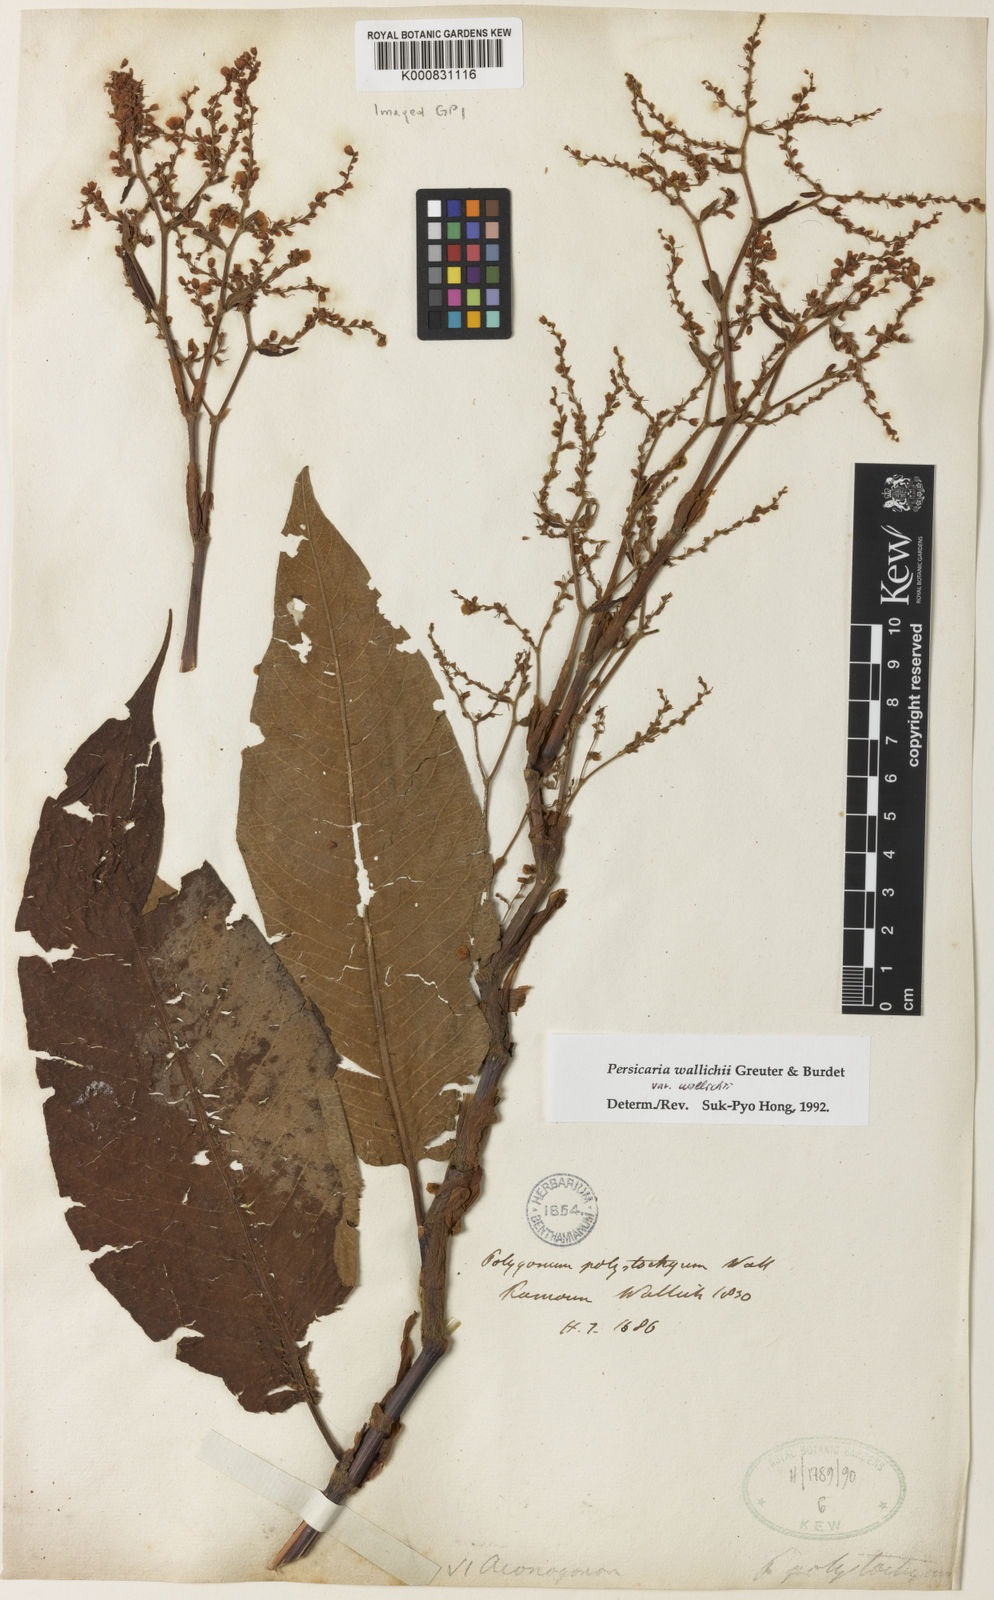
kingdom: Plantae
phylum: Tracheophyta
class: Magnoliopsida
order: Caryophyllales
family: Polygonaceae
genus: Persicaria
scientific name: Persicaria microcephala
